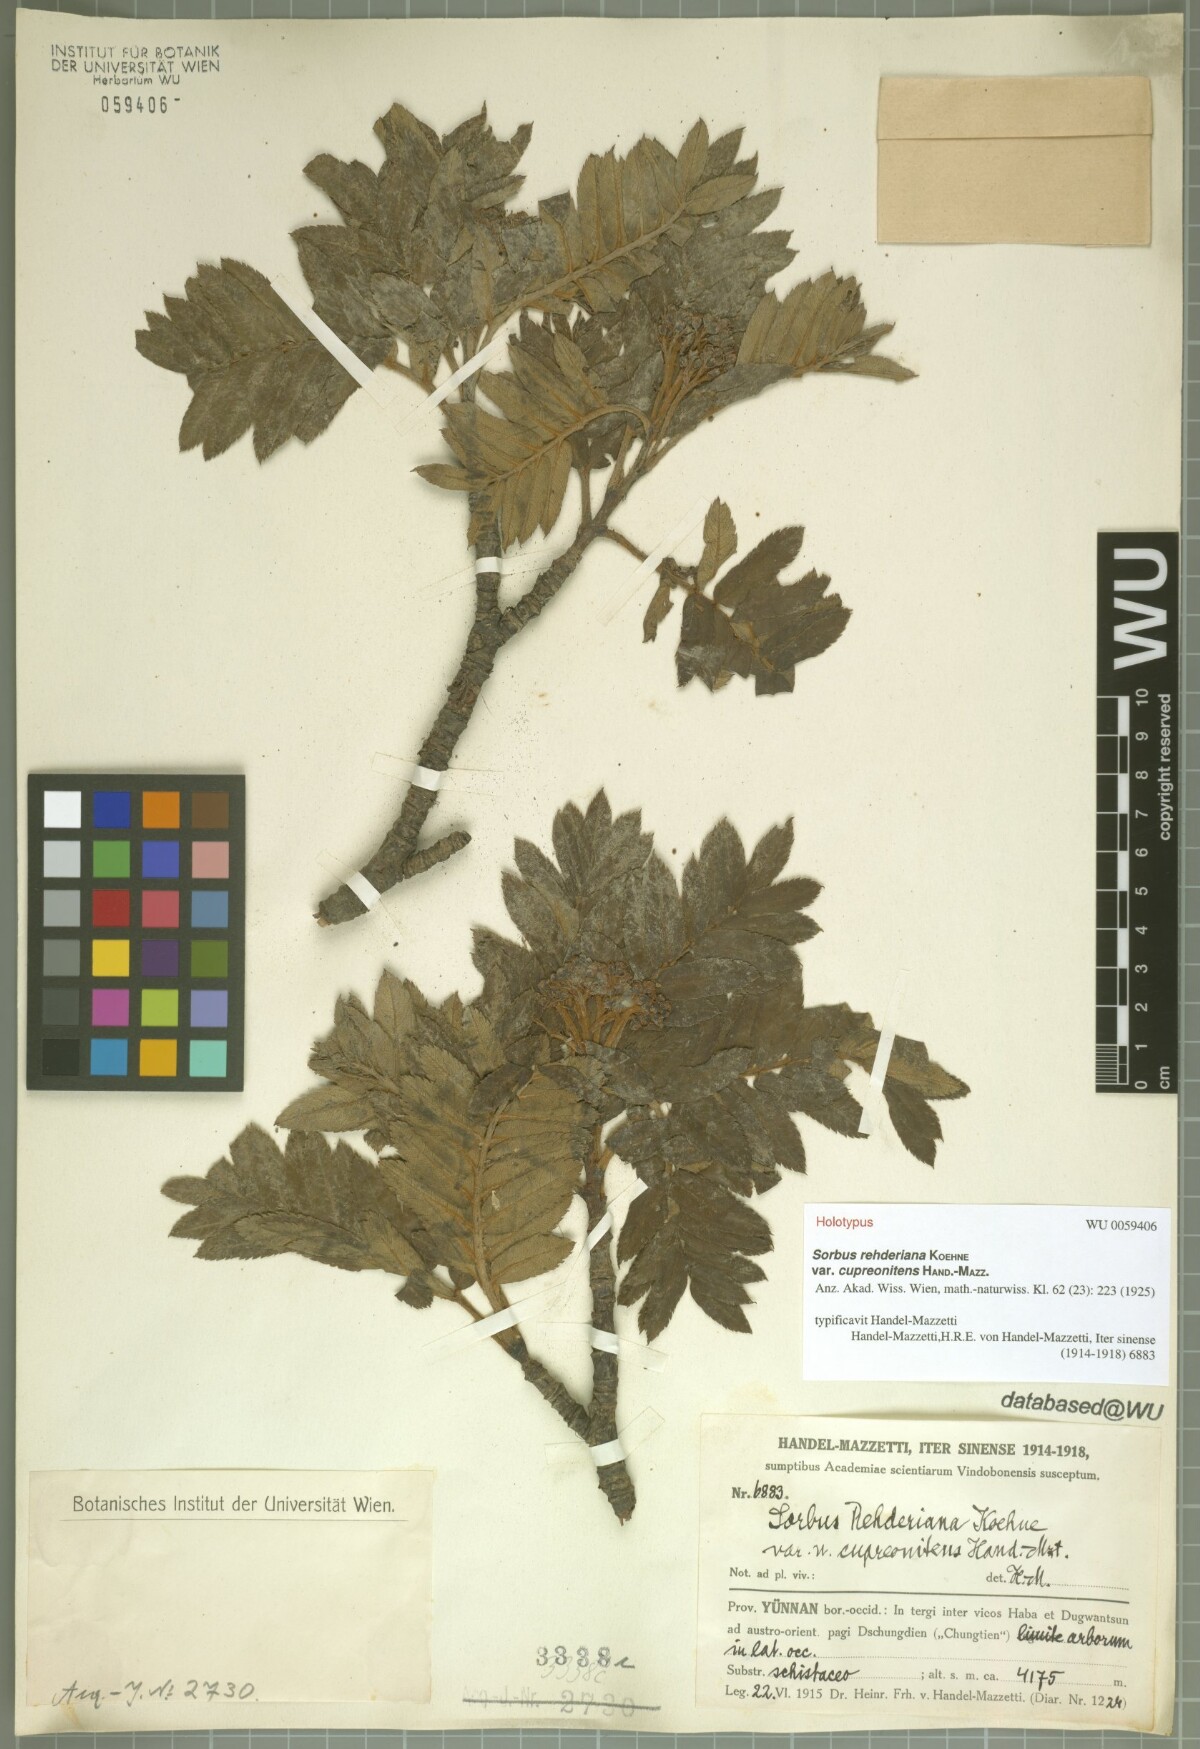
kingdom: Plantae
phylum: Tracheophyta
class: Magnoliopsida
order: Rosales
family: Rosaceae
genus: Sorbus
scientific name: Sorbus rehderiana
